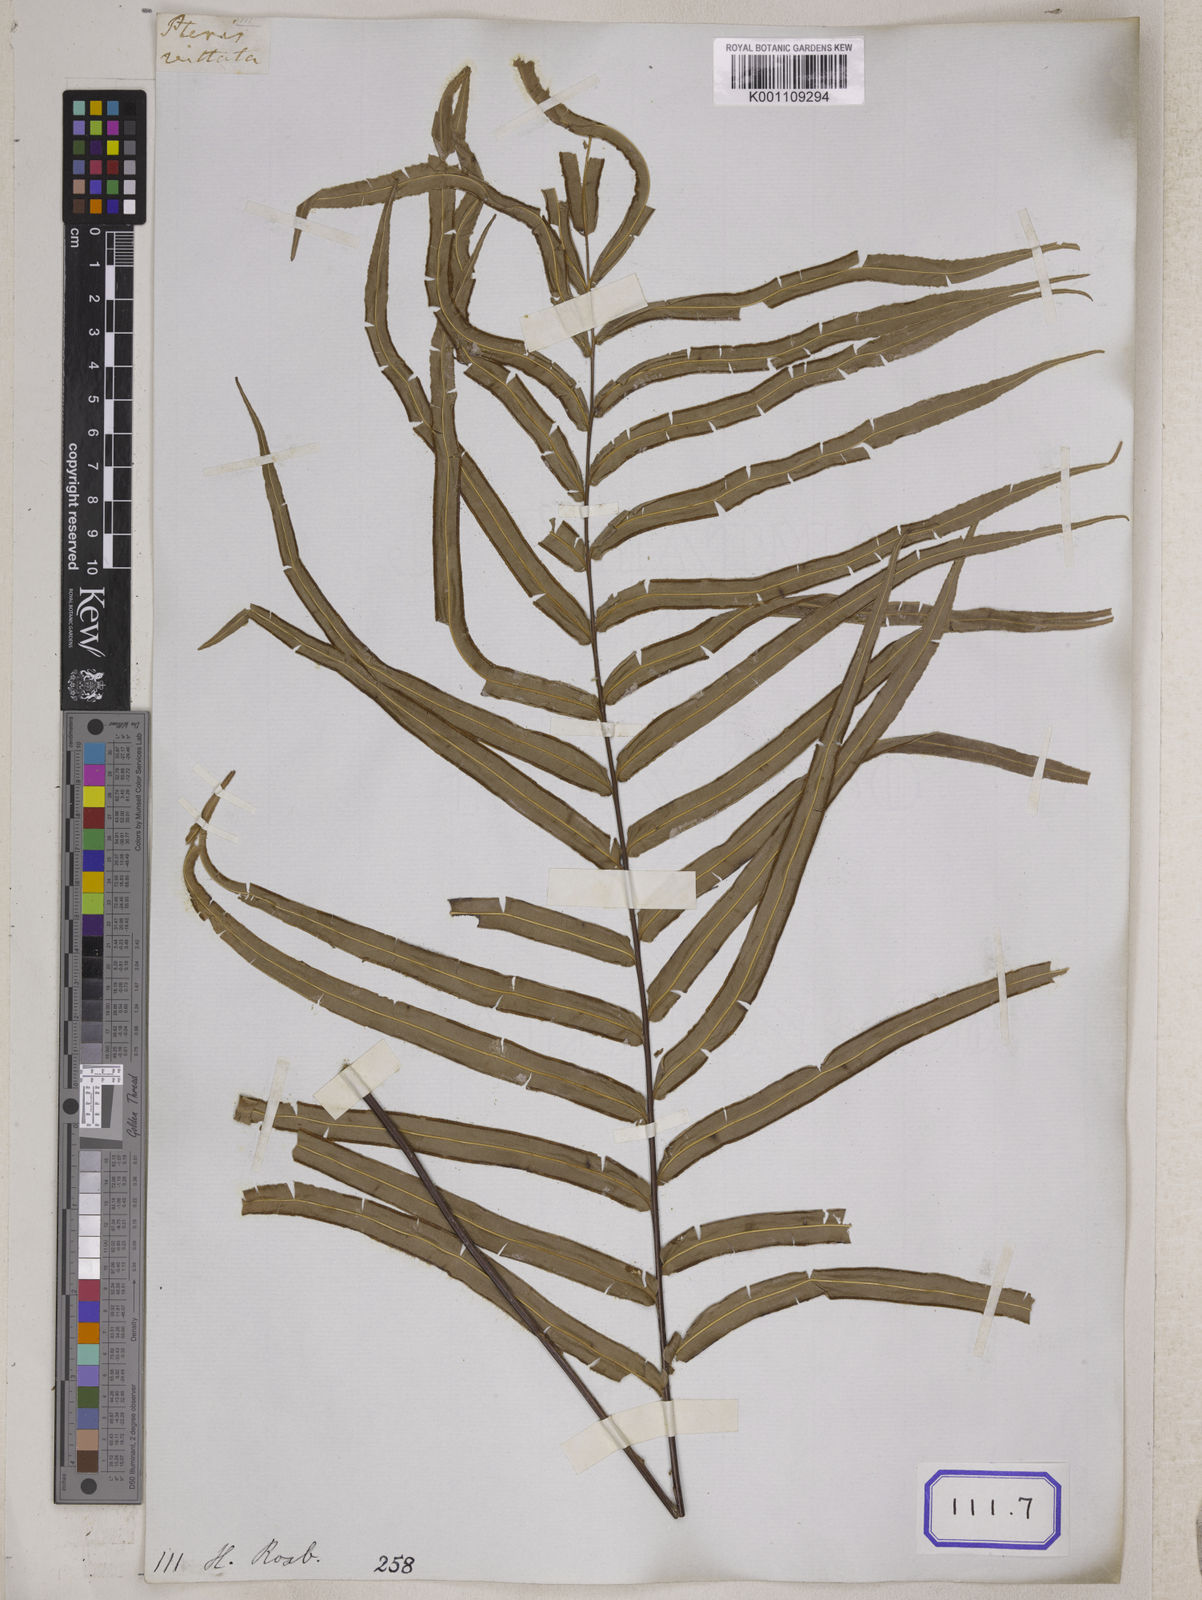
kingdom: Plantae
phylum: Tracheophyta
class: Polypodiopsida
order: Polypodiales
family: Pteridaceae
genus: Pteris
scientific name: Pteris longifolia
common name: Longleaf brake
